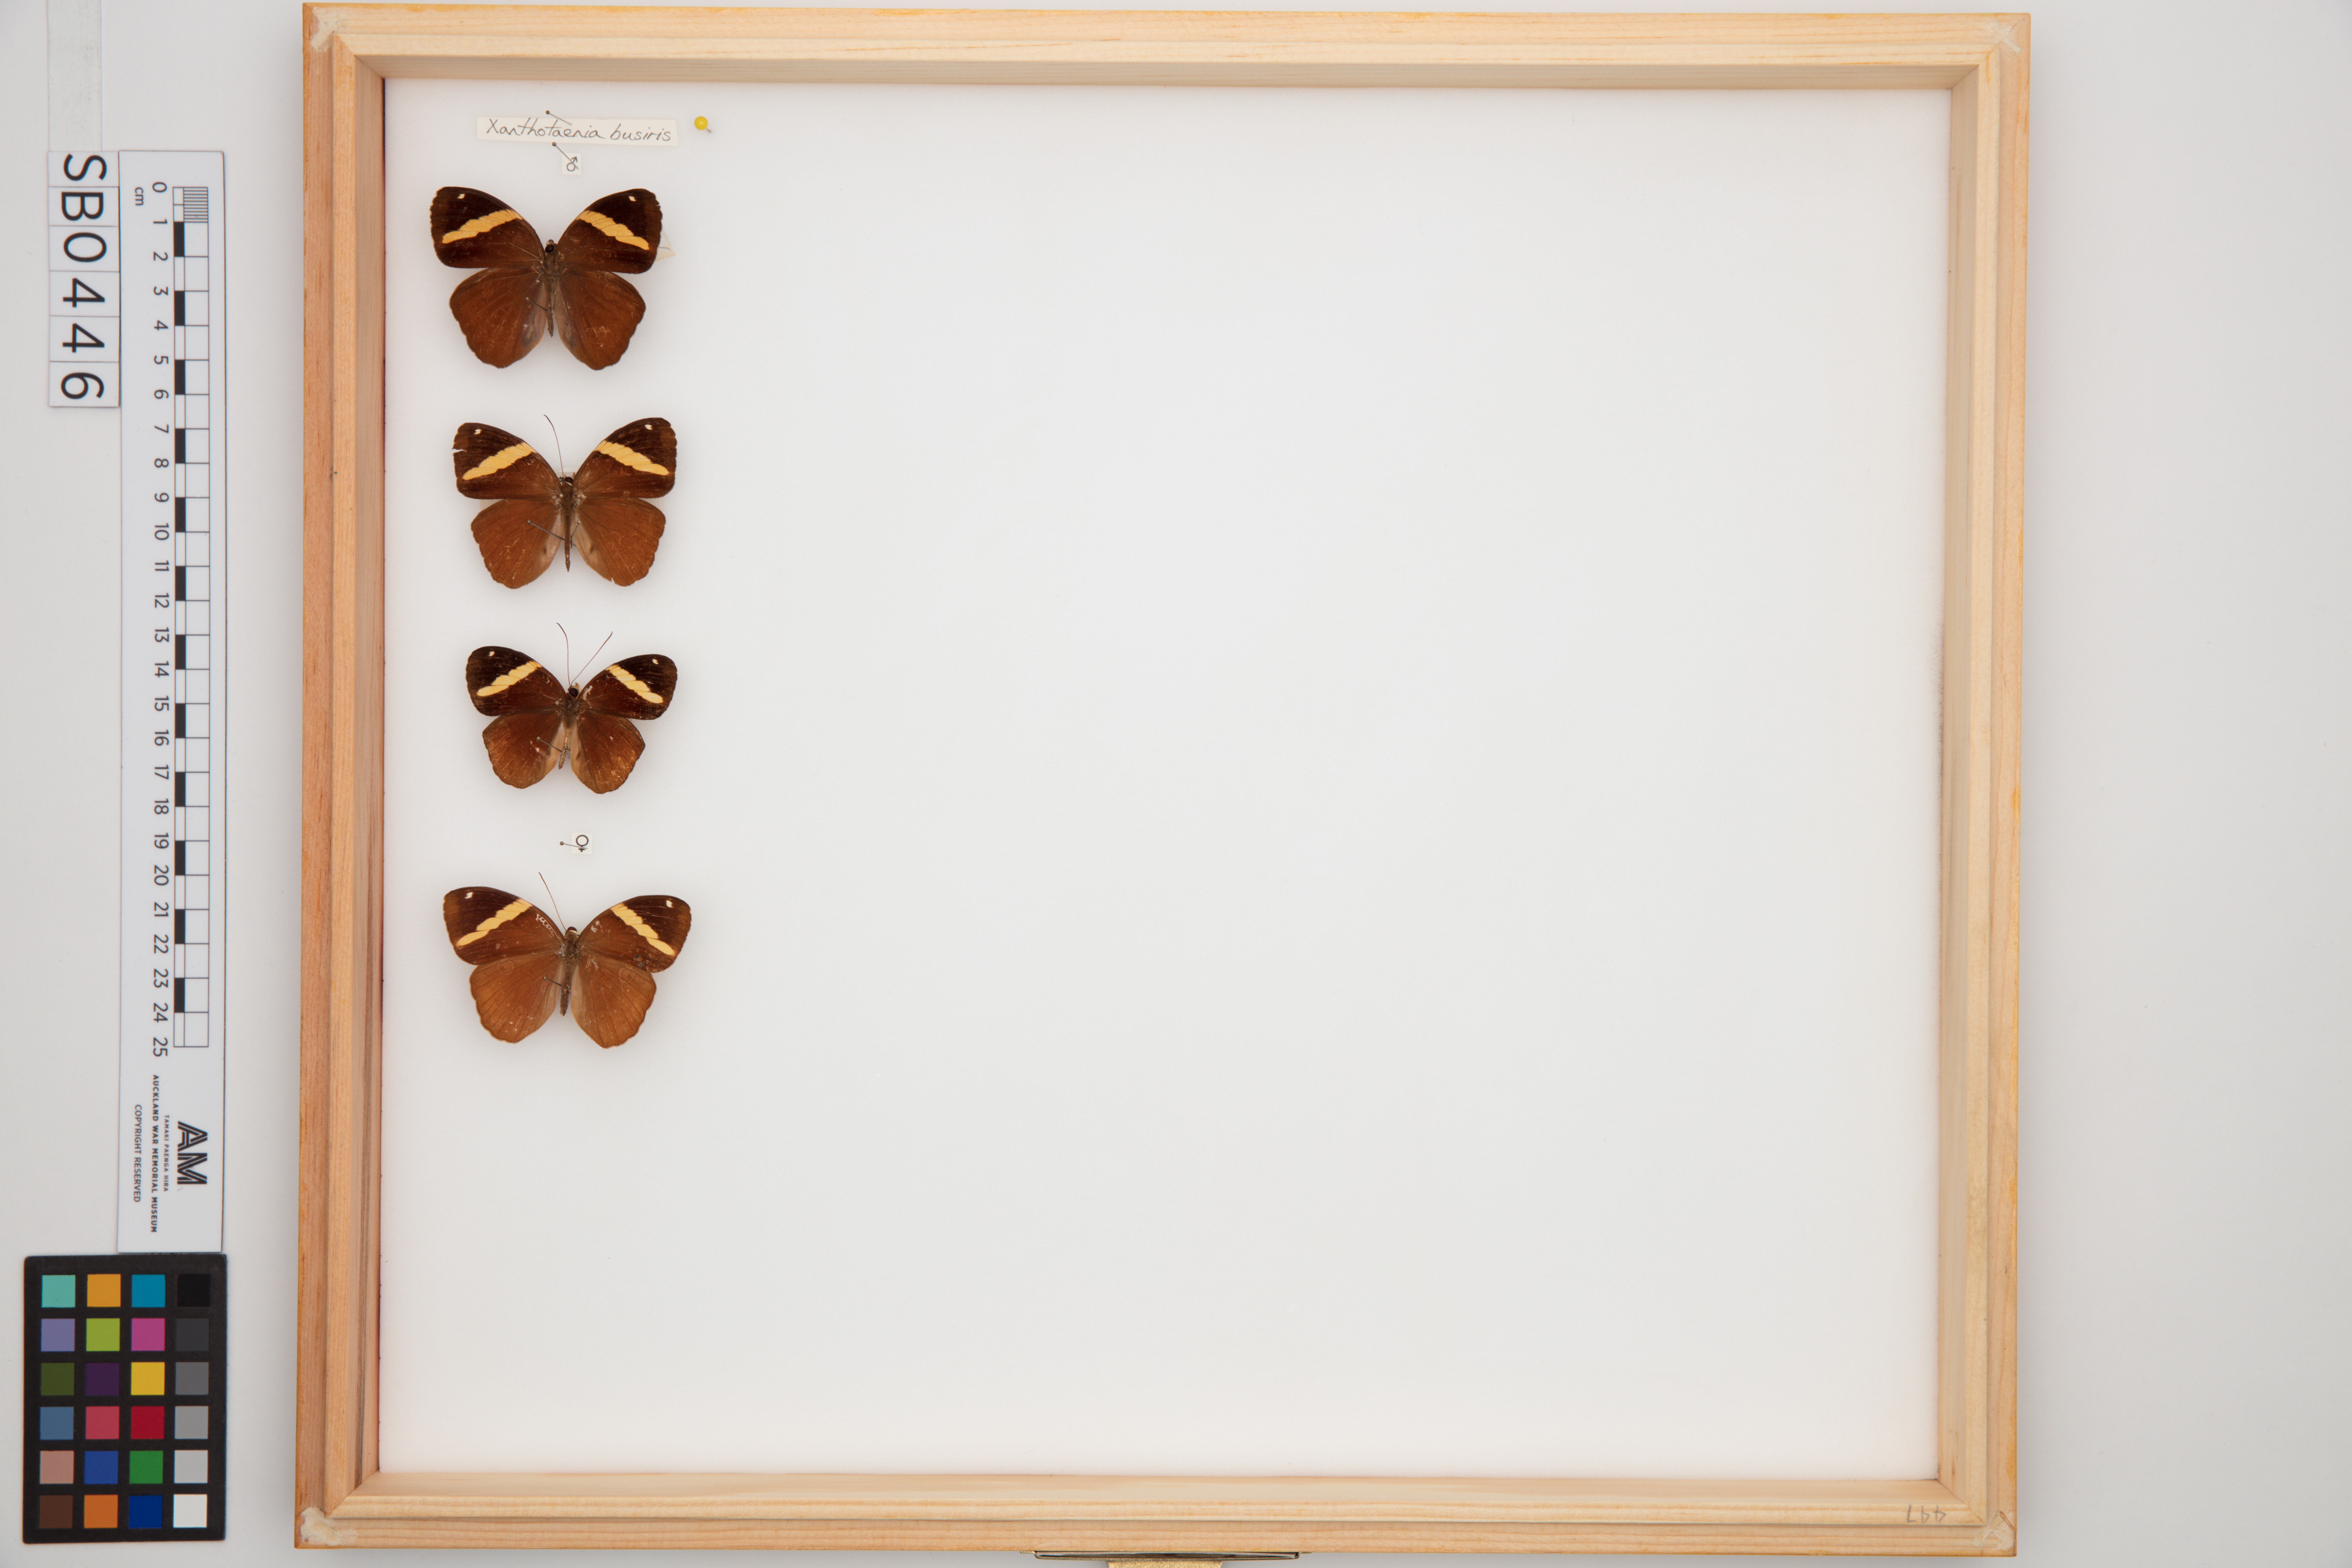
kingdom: Animalia
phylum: Arthropoda
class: Insecta
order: Lepidoptera
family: Nymphalidae
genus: Xanthotaenia
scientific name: Xanthotaenia busiris
